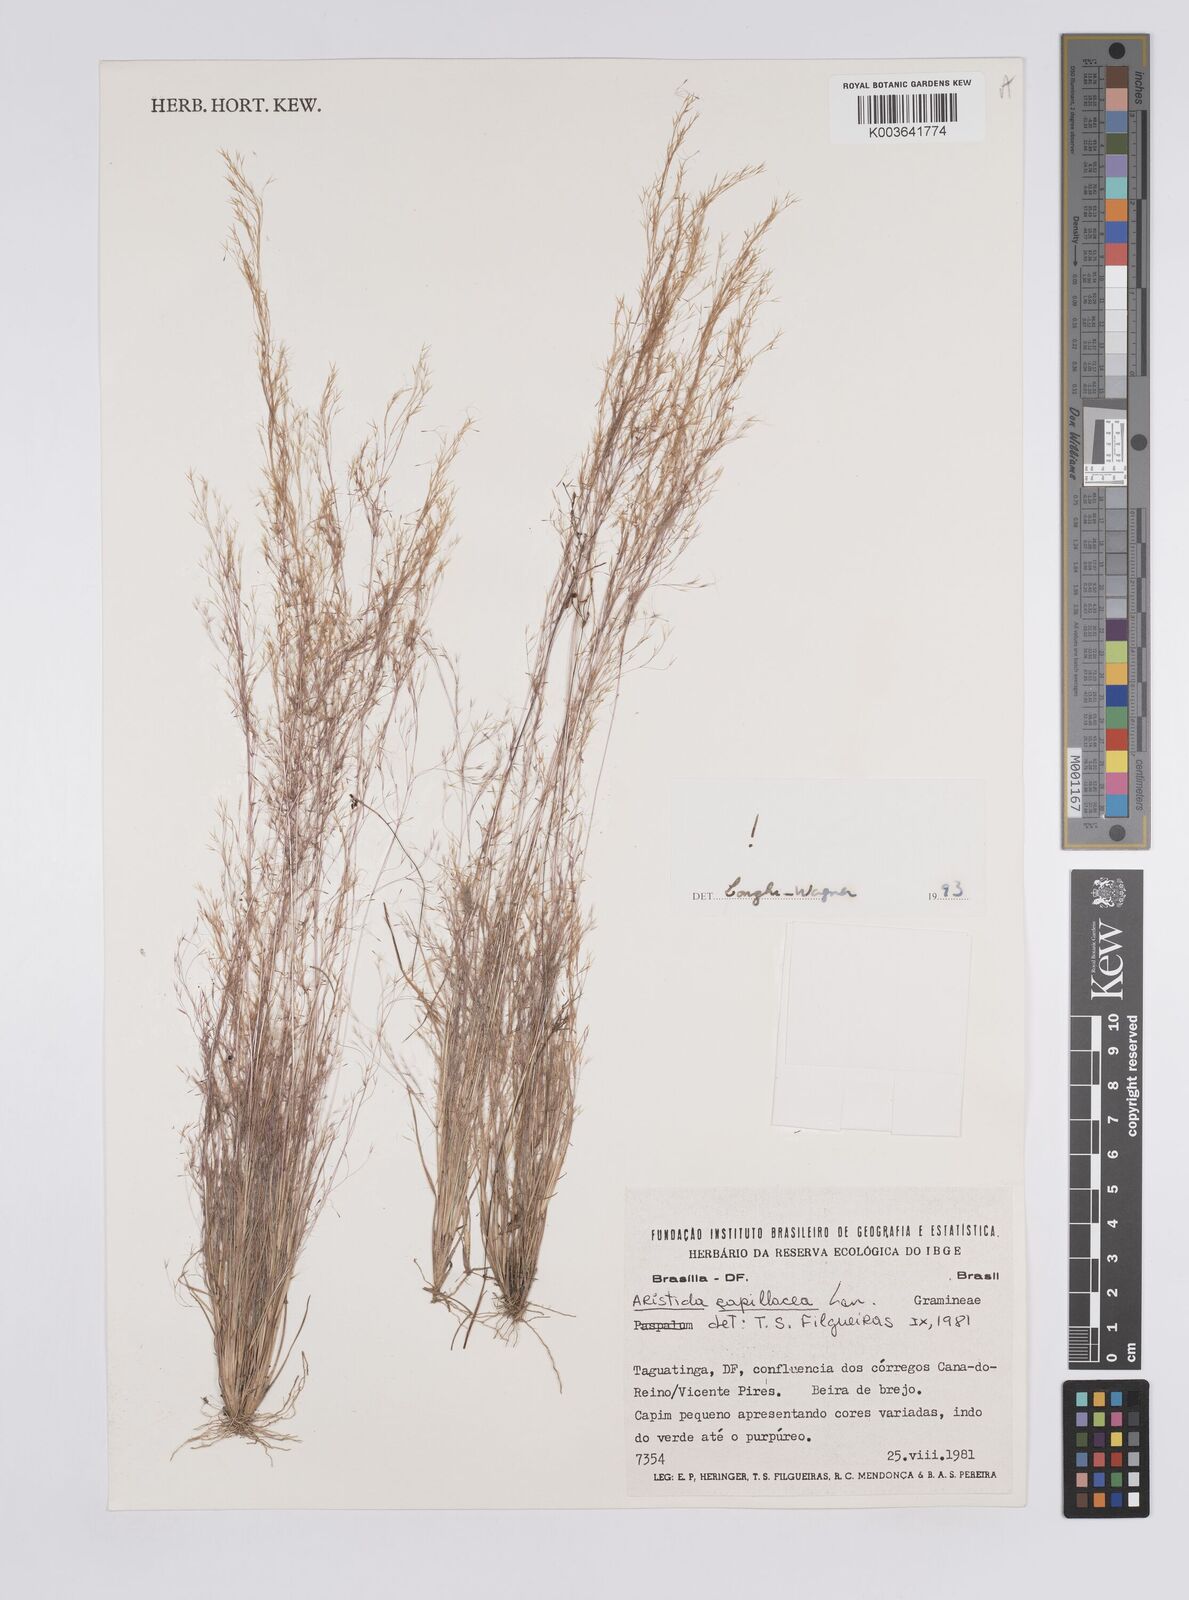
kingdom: Plantae
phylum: Tracheophyta
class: Liliopsida
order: Poales
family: Poaceae
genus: Aristida
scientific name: Aristida capillacea
